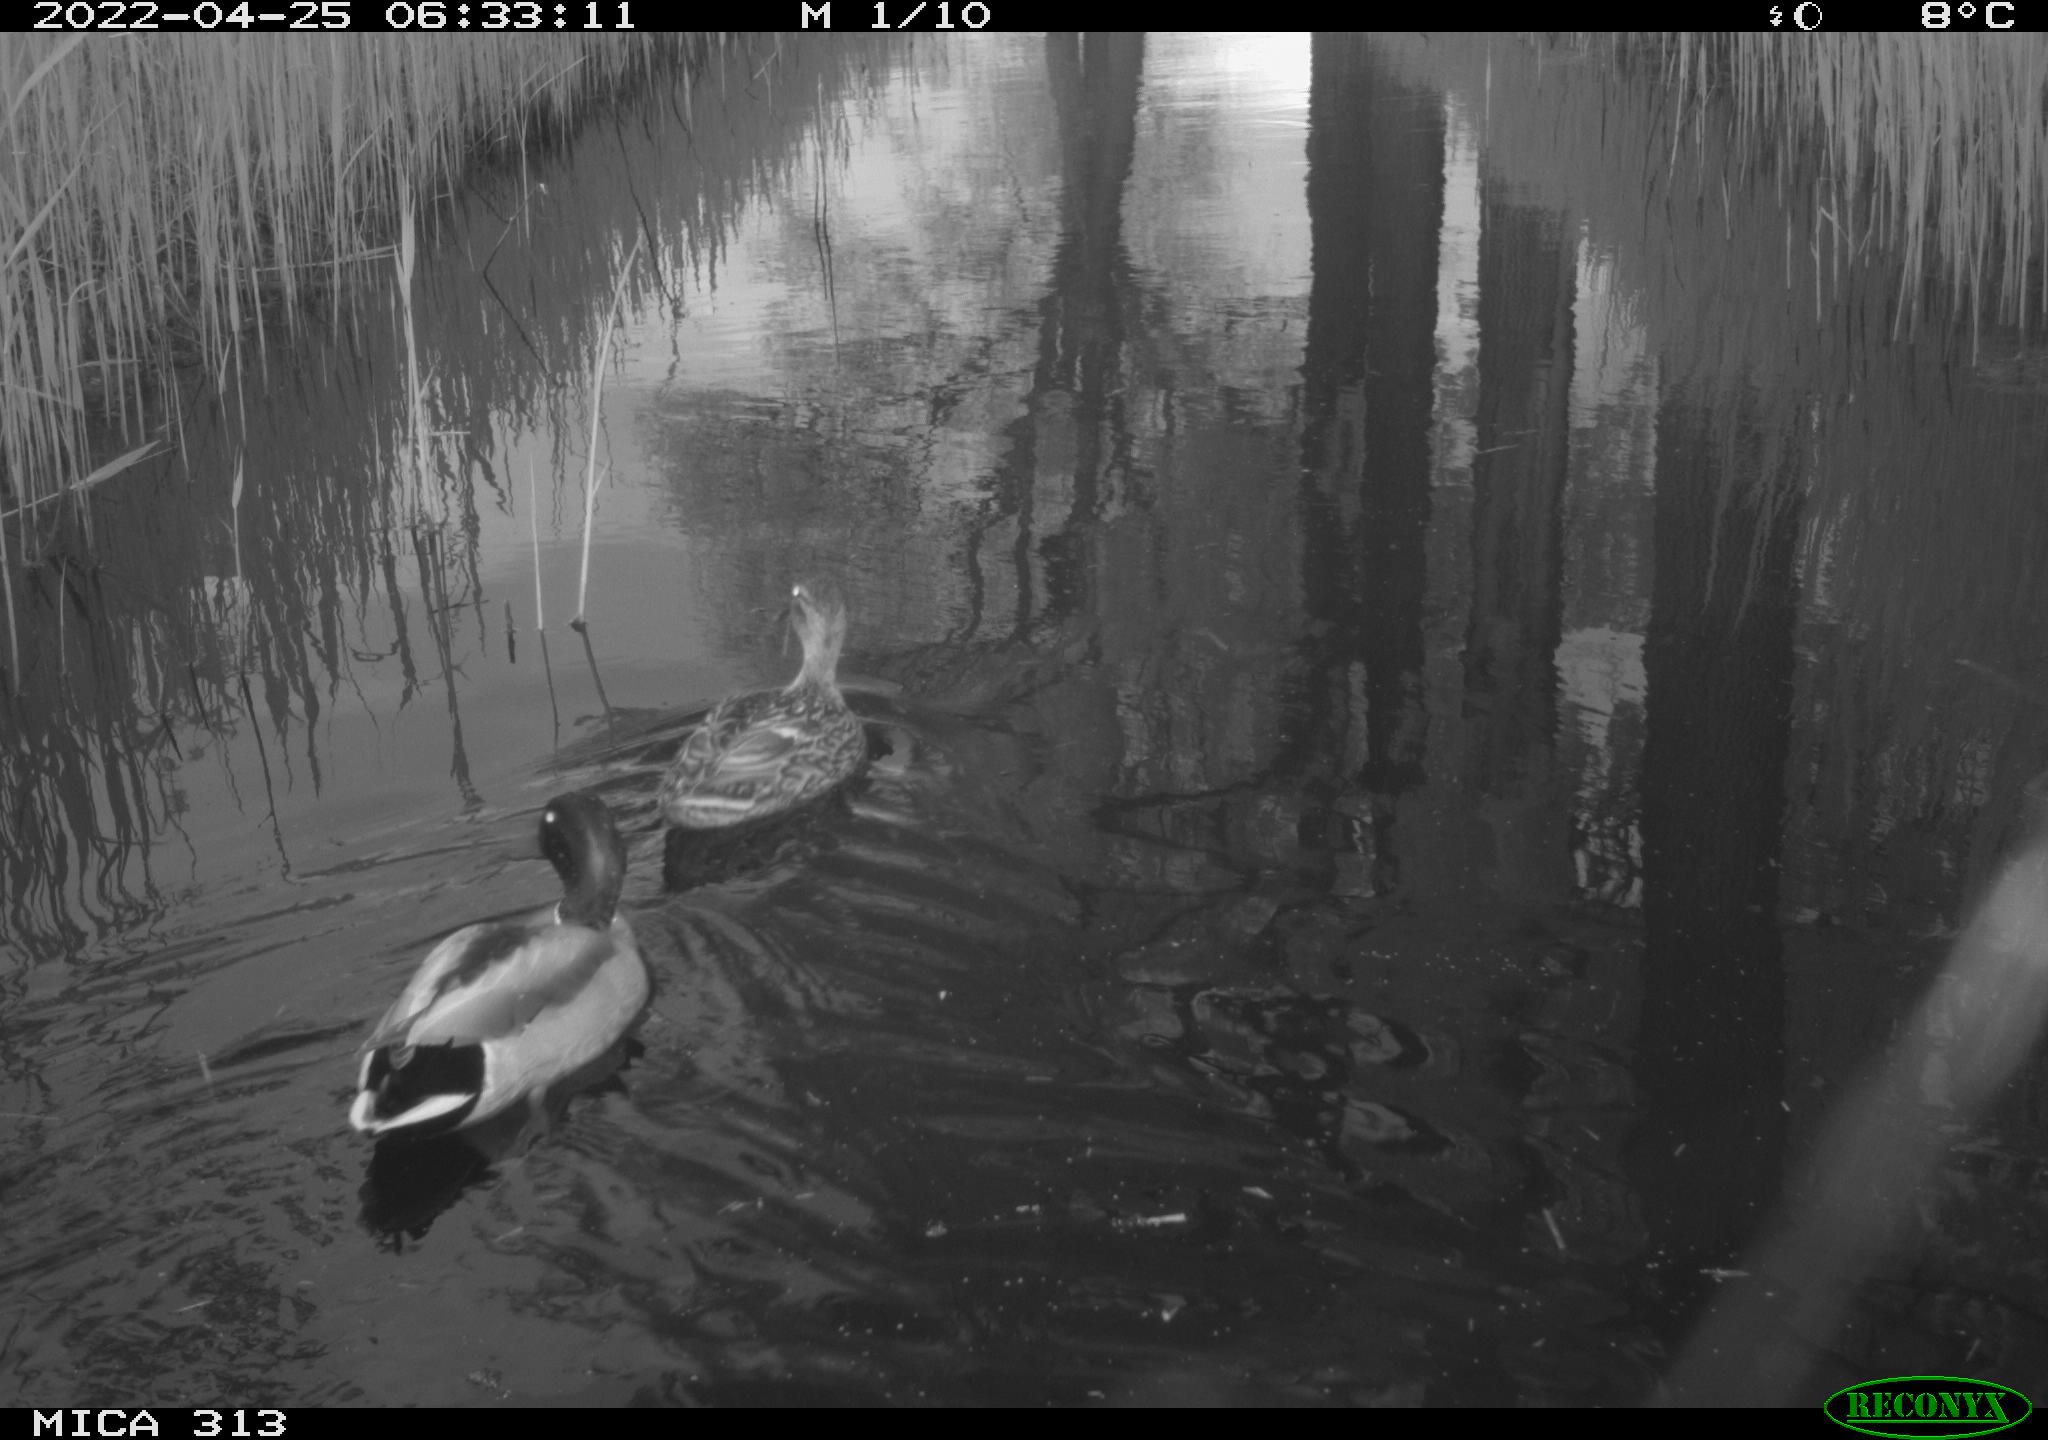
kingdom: Animalia
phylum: Chordata
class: Aves
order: Anseriformes
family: Anatidae
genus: Anas
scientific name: Anas platyrhynchos
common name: Mallard
